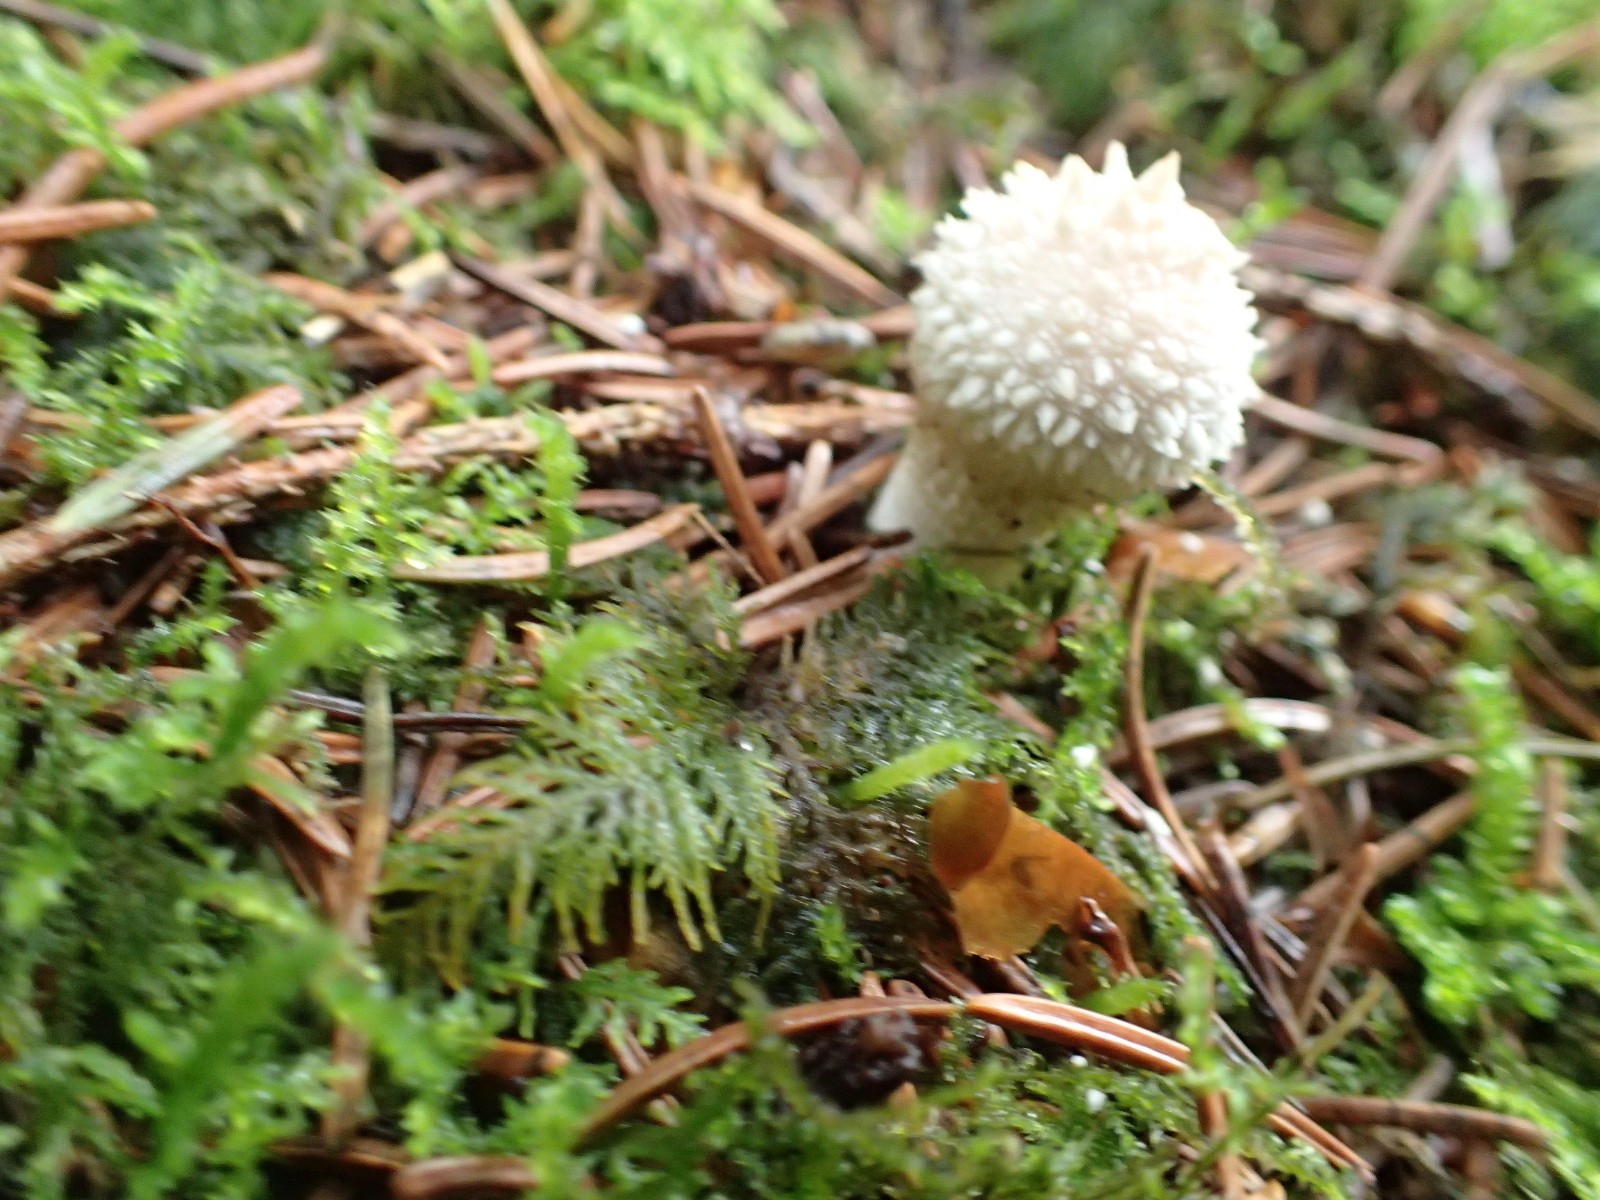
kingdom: Fungi
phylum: Basidiomycota
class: Agaricomycetes
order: Agaricales
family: Lycoperdaceae
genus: Lycoperdon
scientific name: Lycoperdon perlatum
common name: krystal-støvbold
